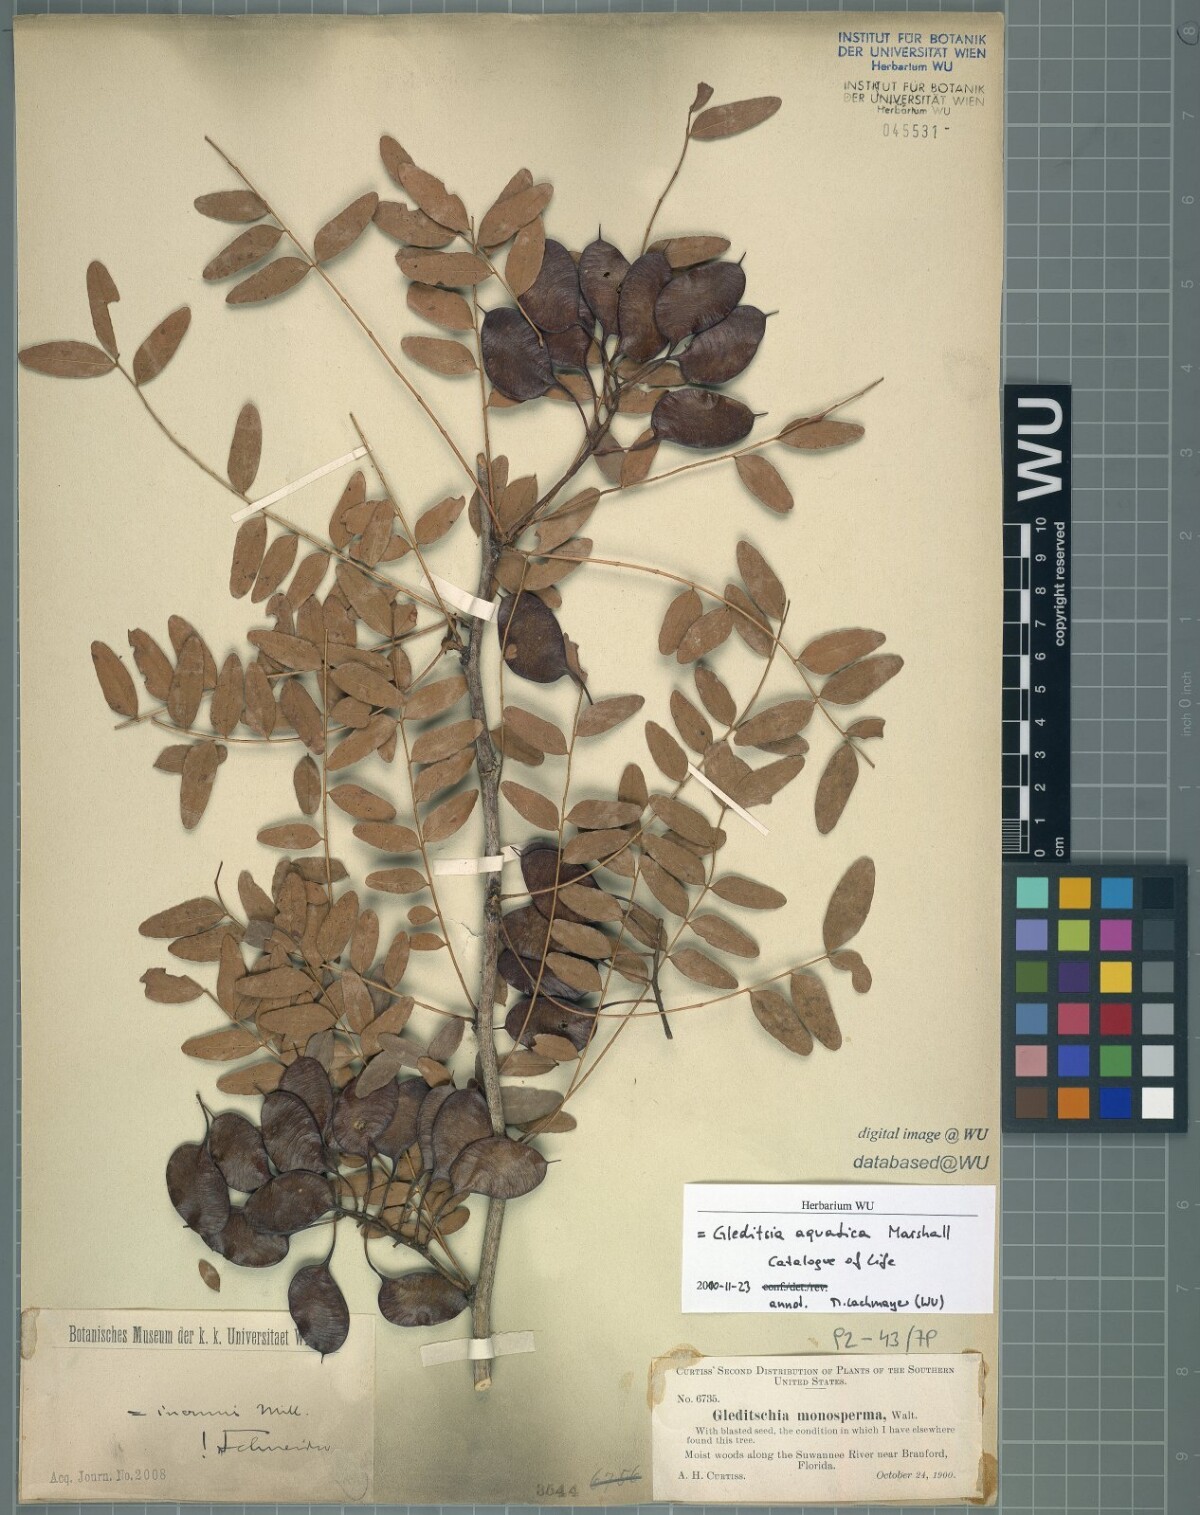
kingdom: Plantae
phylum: Tracheophyta
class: Magnoliopsida
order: Fabales
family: Fabaceae
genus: Gleditsia
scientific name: Gleditsia aquatica
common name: Swamp-locust
